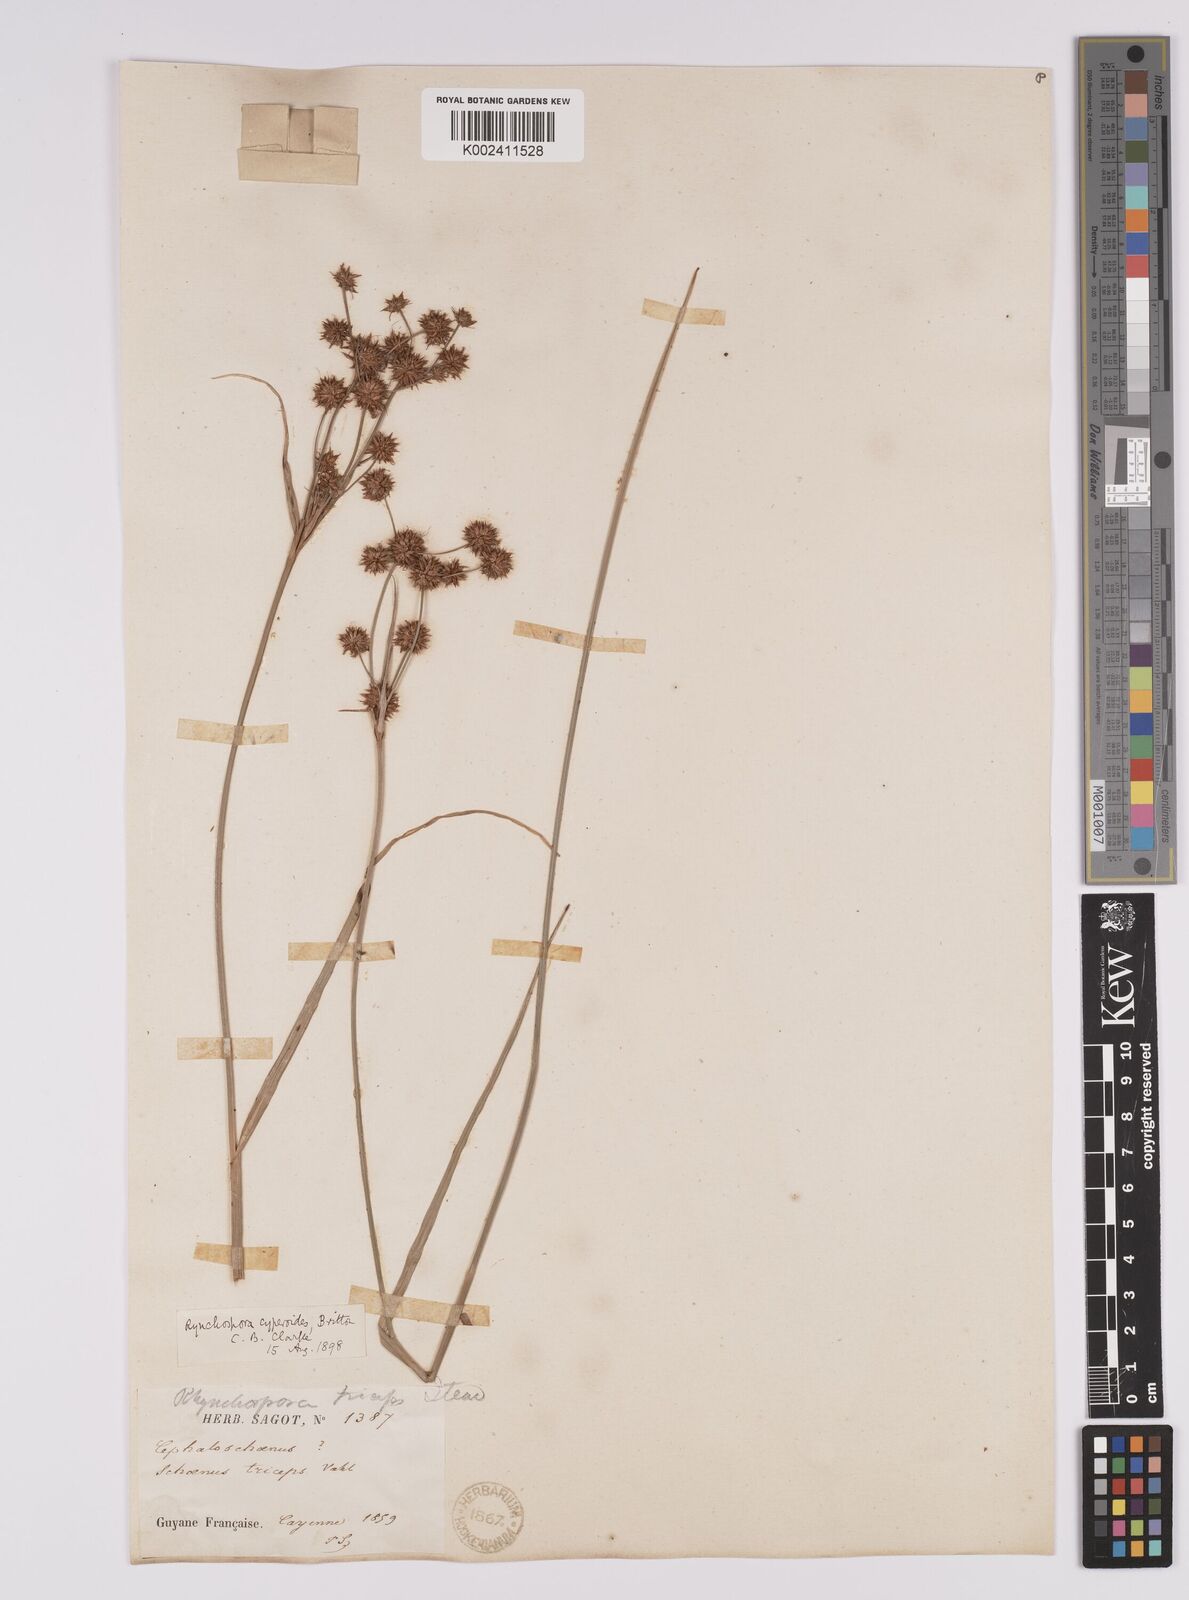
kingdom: Plantae
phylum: Tracheophyta
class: Liliopsida
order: Poales
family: Cyperaceae
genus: Rhynchospora
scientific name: Rhynchospora holoschoenoides
